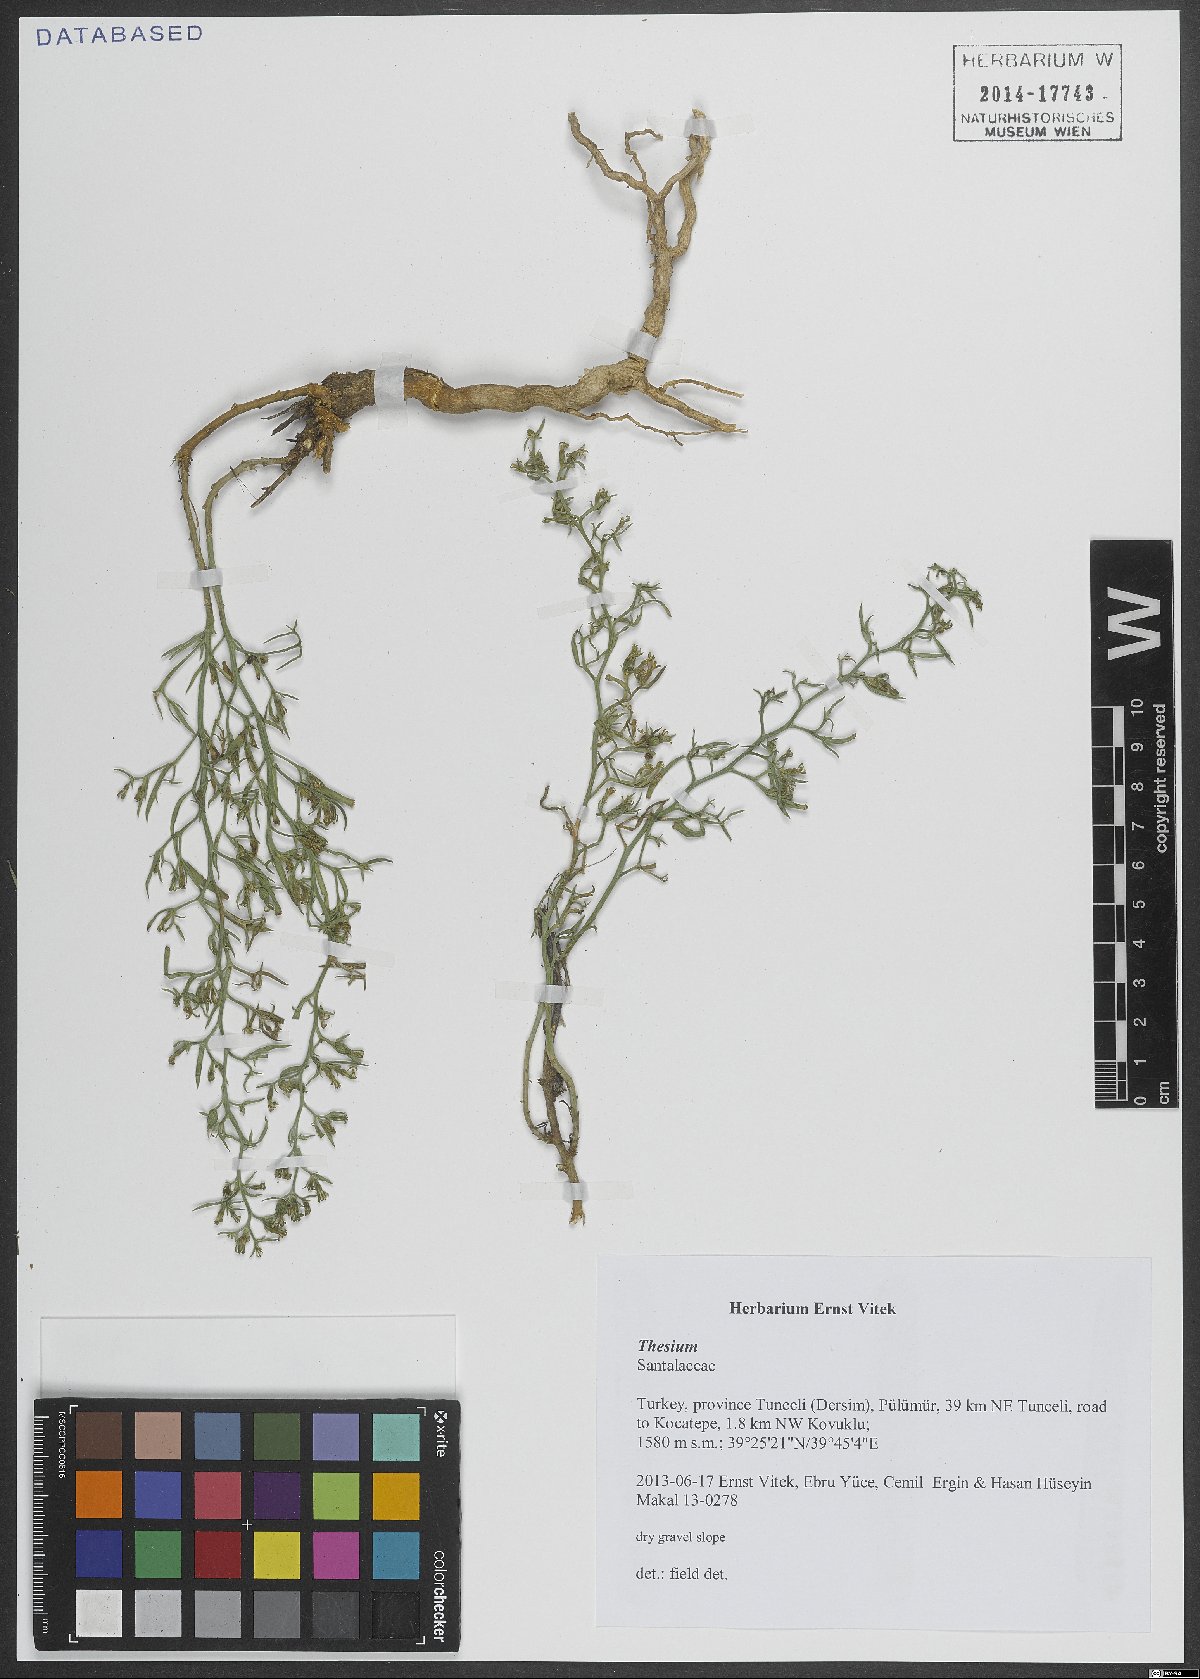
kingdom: Plantae
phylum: Tracheophyta
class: Magnoliopsida
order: Santalales
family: Thesiaceae
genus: Thesium
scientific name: Thesium
